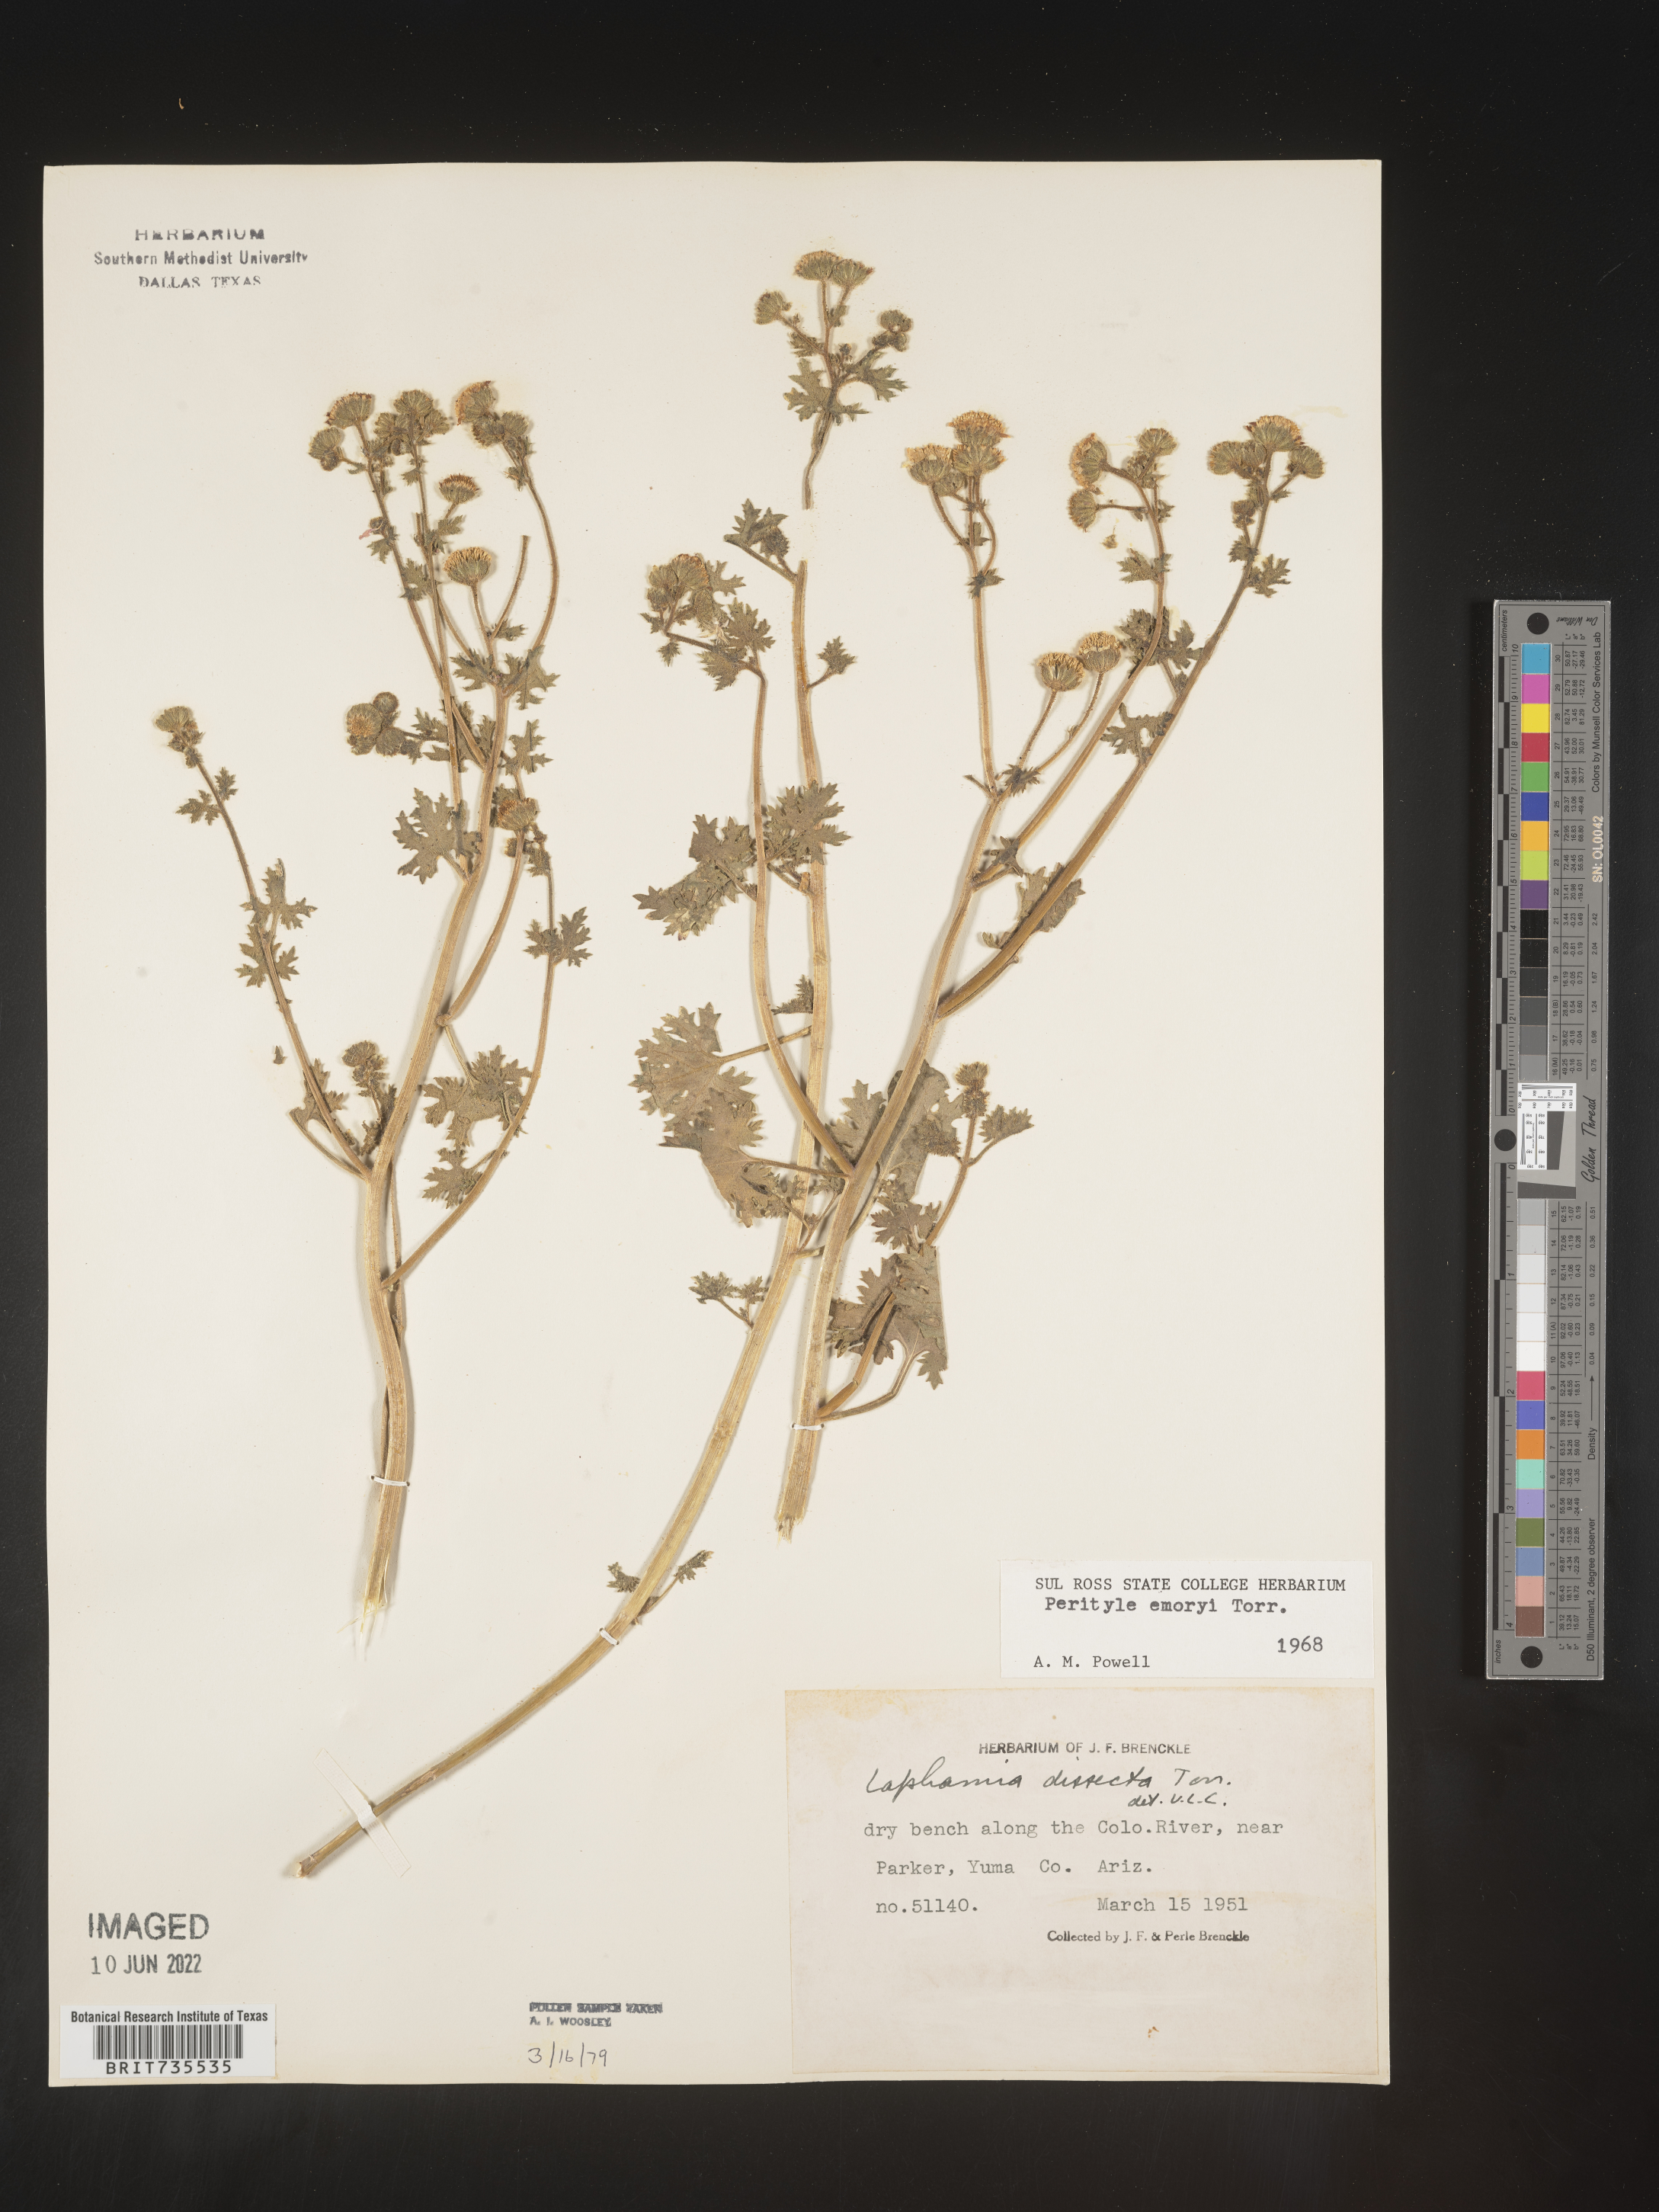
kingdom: Plantae
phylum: Tracheophyta
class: Magnoliopsida
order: Asterales
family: Asteraceae
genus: Perityle
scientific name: Perityle
